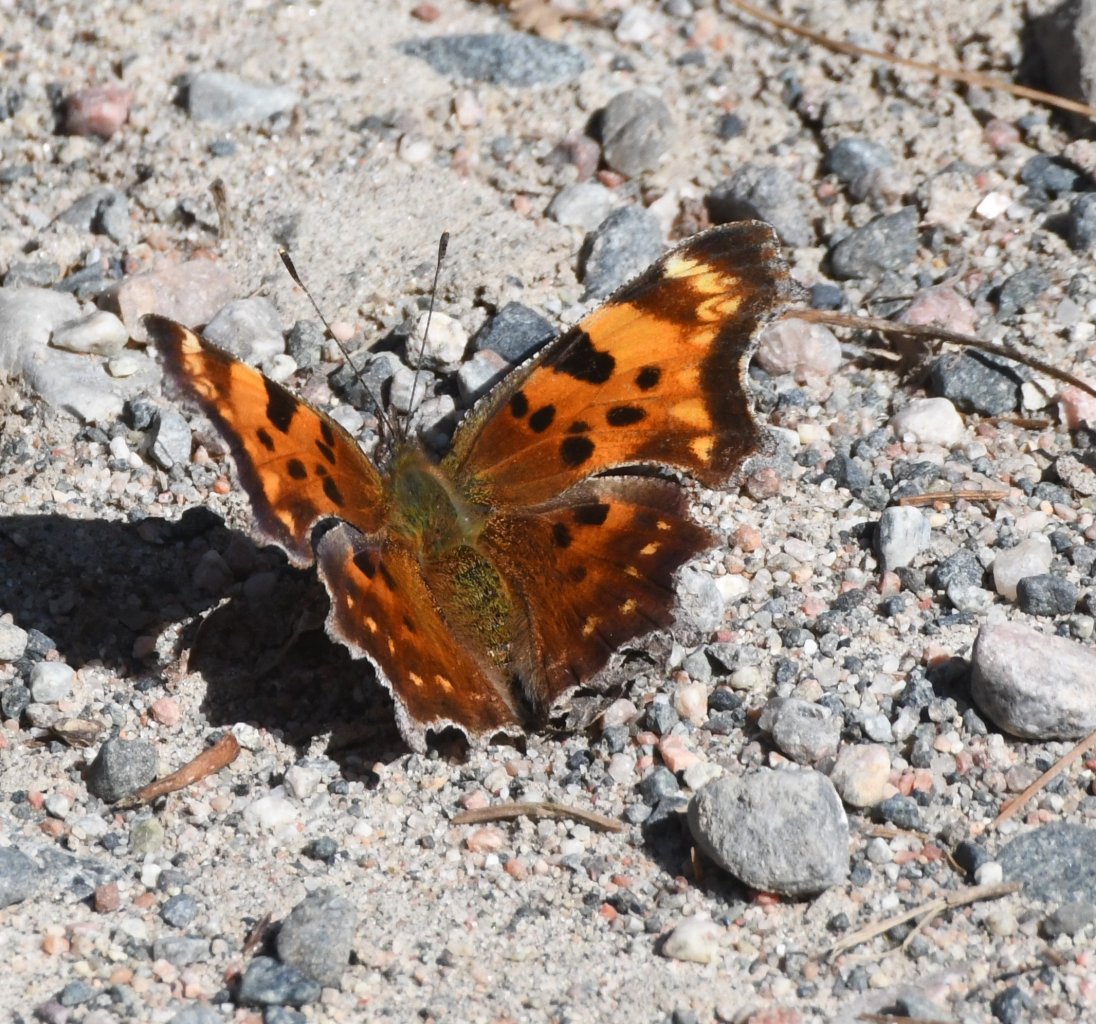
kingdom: Animalia
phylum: Arthropoda
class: Insecta
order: Lepidoptera
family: Nymphalidae
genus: Polygonia
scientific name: Polygonia faunus
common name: Green Comma
